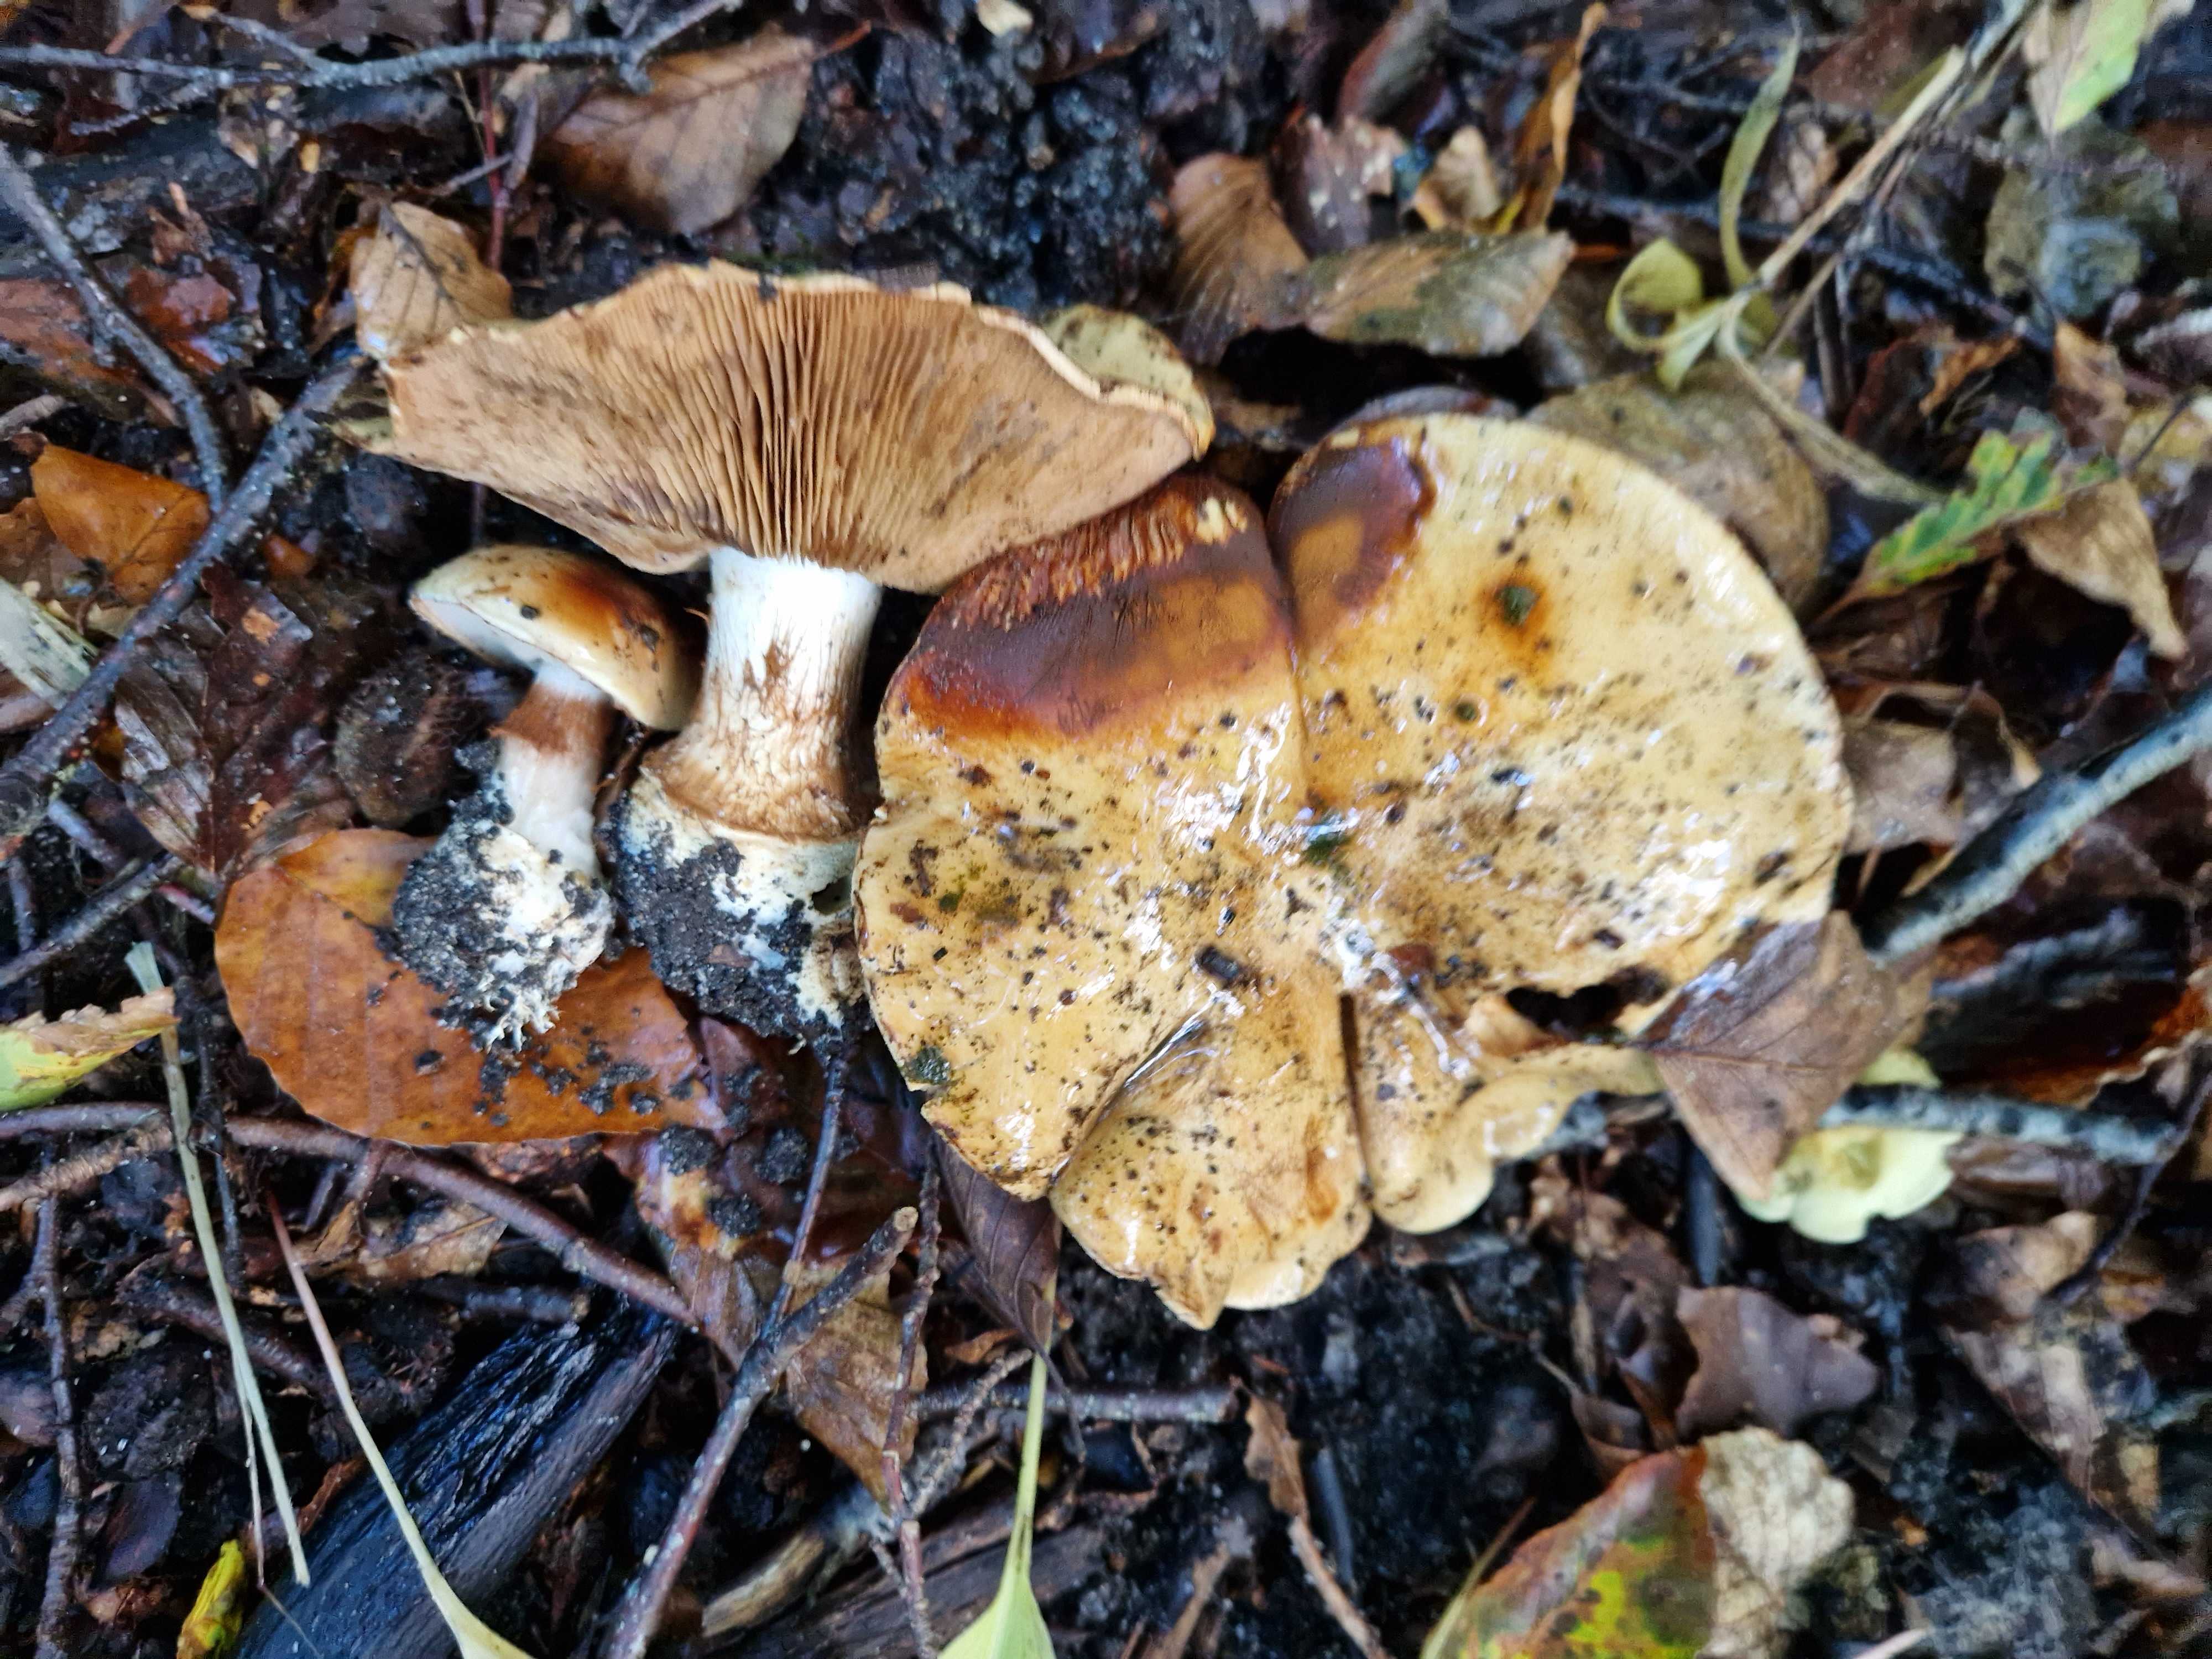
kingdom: Fungi
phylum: Basidiomycota
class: Agaricomycetes
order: Agaricales
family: Cortinariaceae
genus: Cortinarius
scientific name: Cortinarius anserinus
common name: bøge-slørhat
